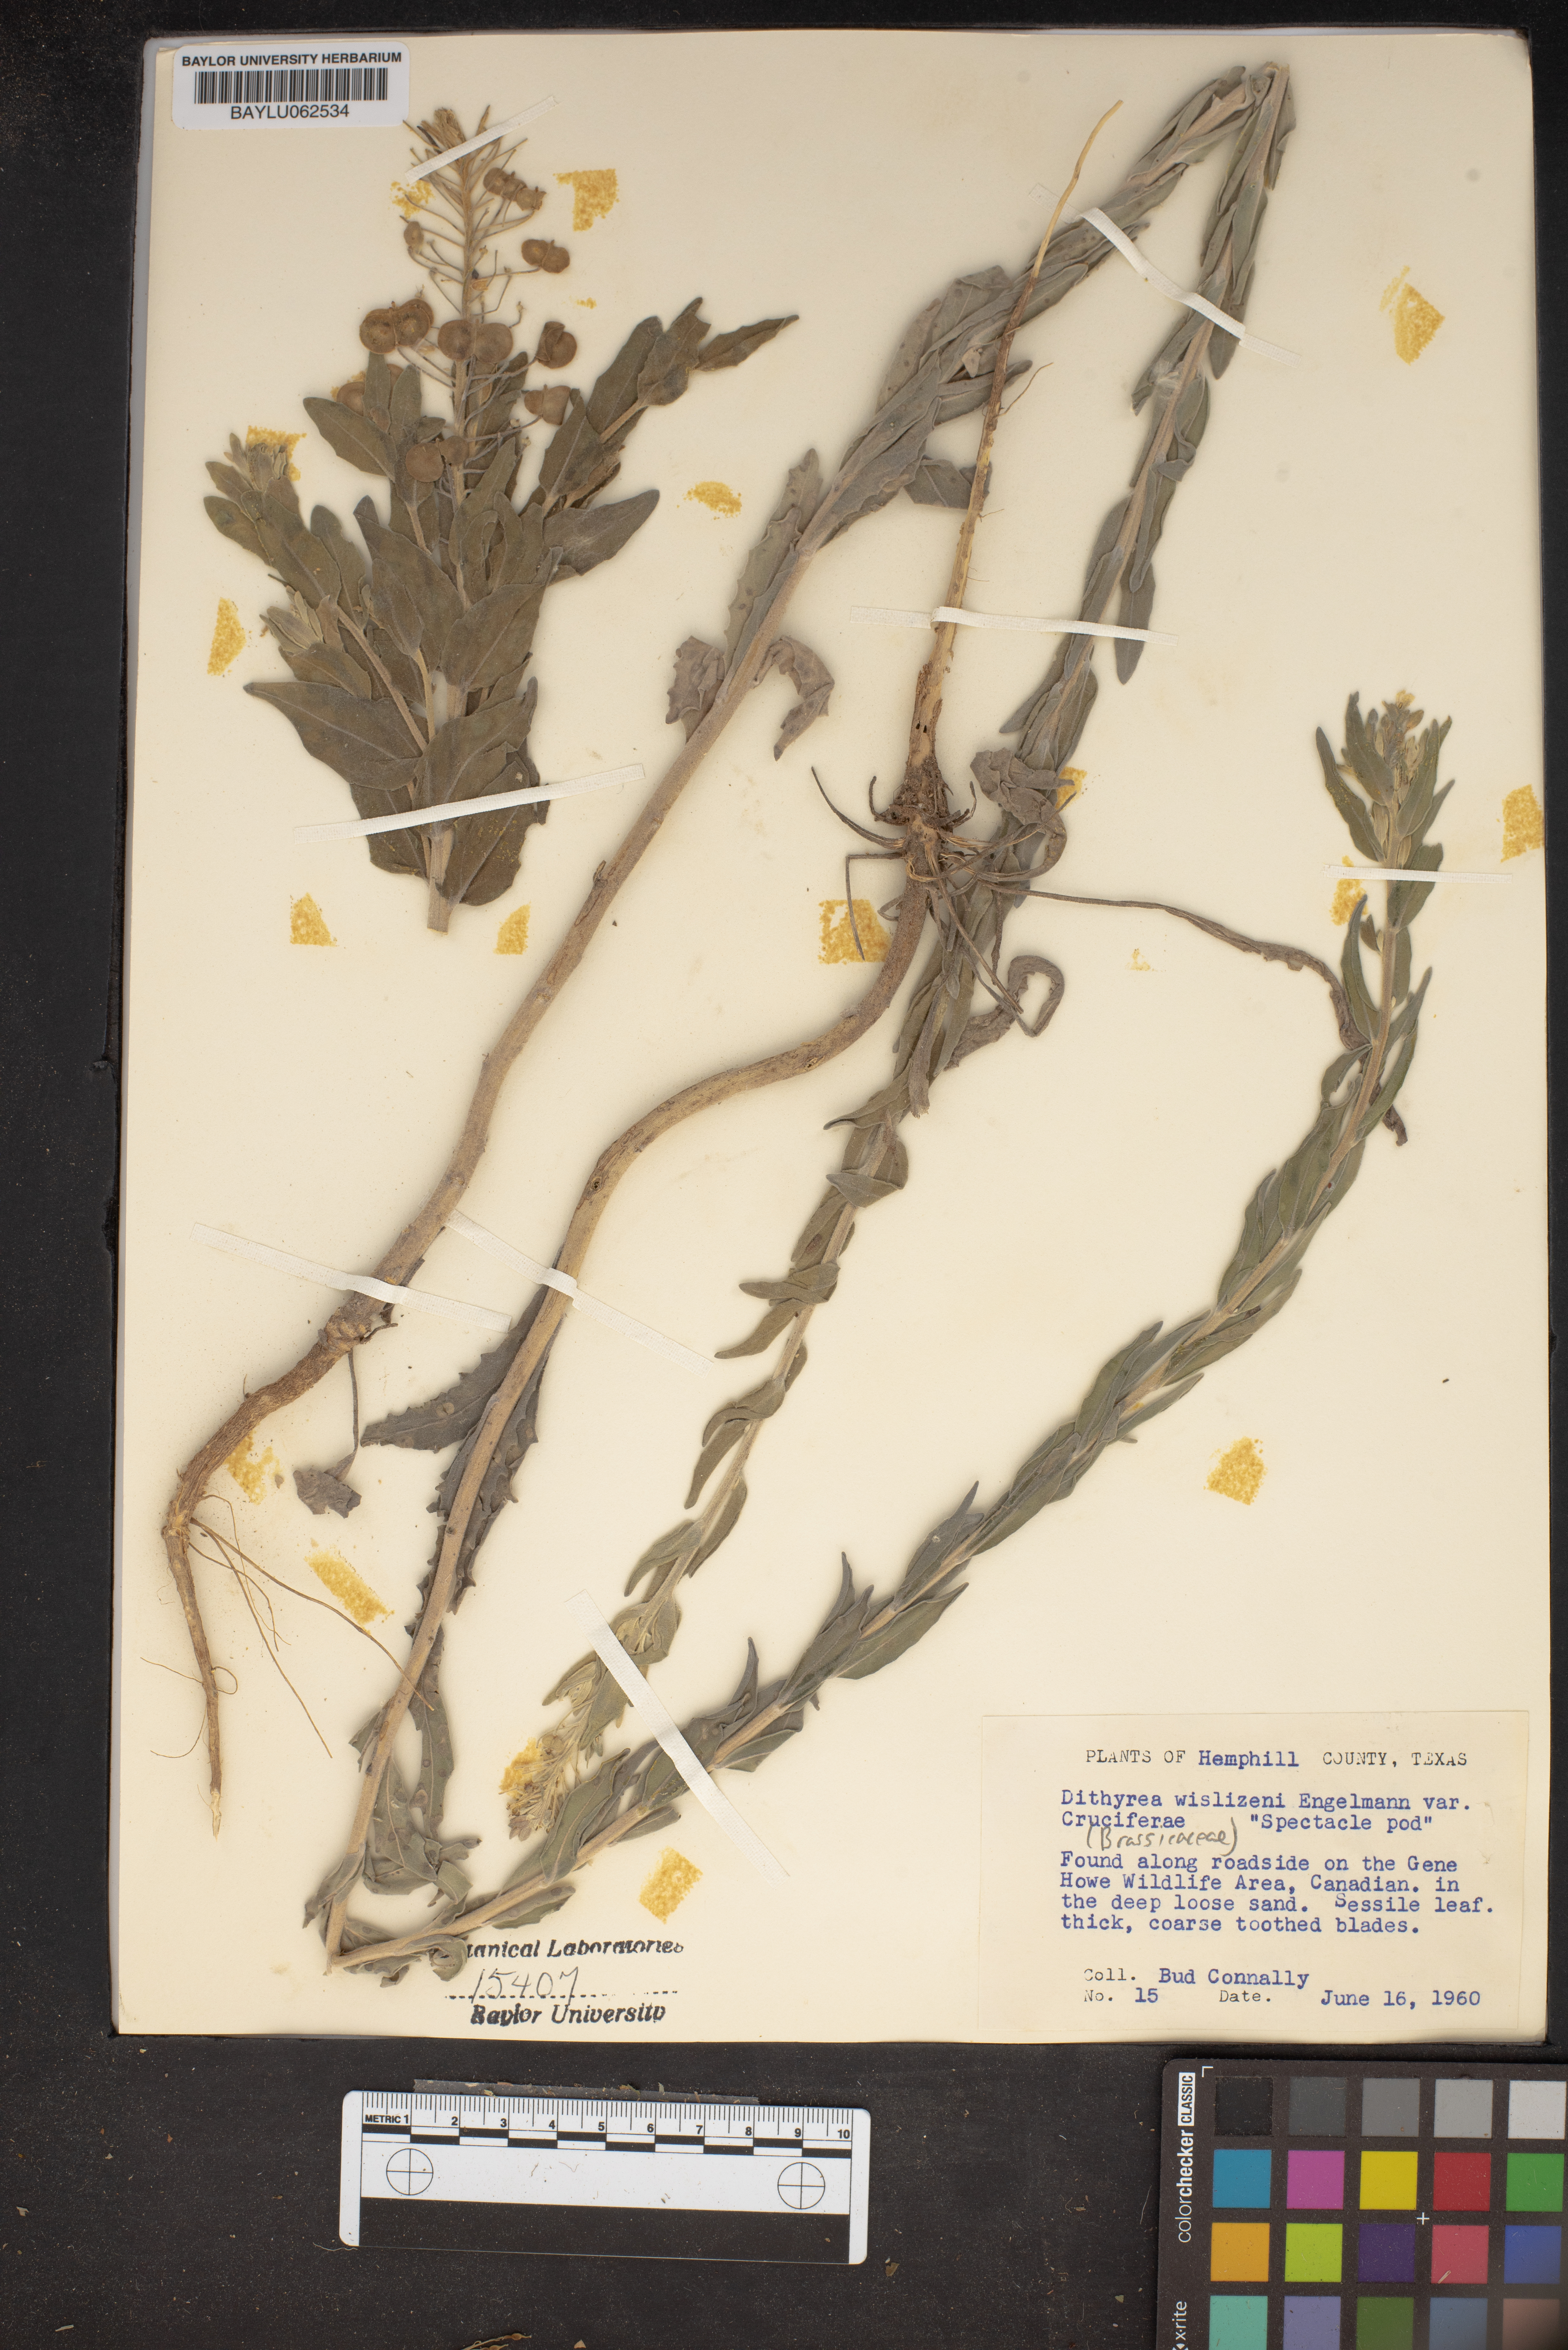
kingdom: Plantae
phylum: Tracheophyta
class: Magnoliopsida
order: Brassicales
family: Brassicaceae
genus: Dimorphocarpa
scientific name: Dimorphocarpa wislizenii
